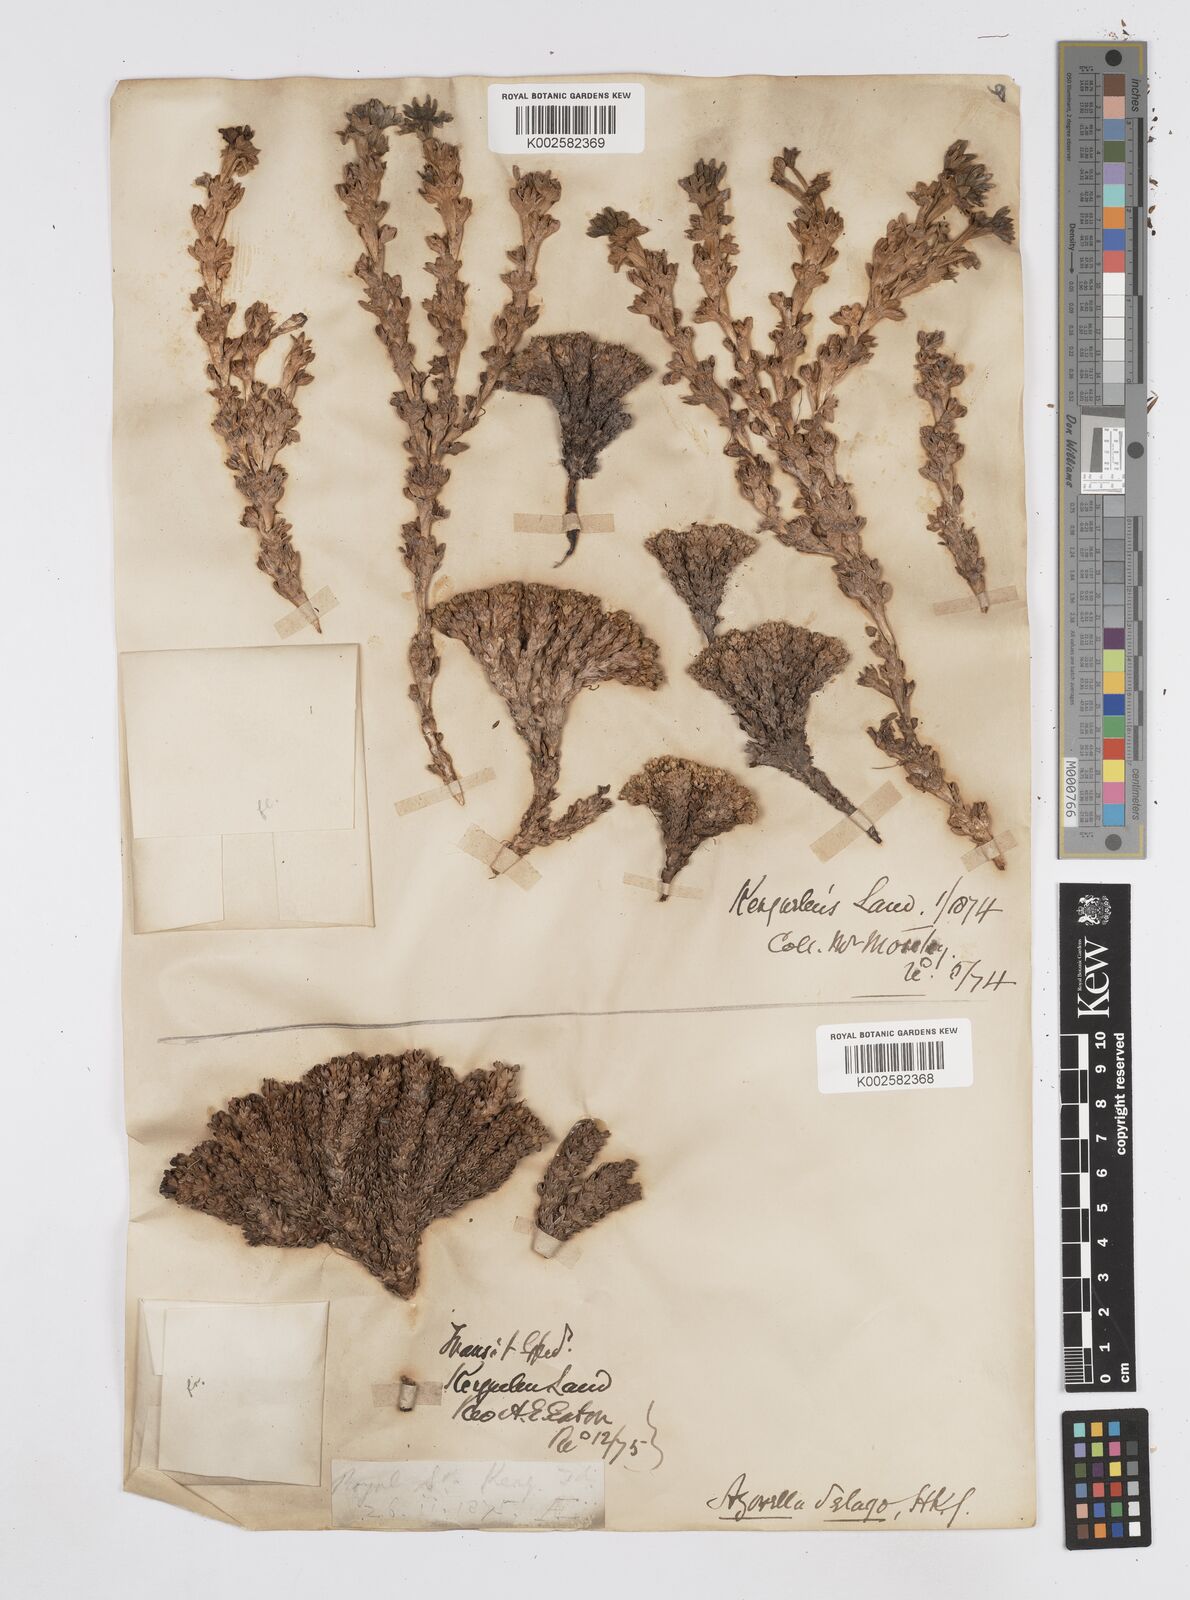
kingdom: Plantae
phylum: Tracheophyta
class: Magnoliopsida
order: Apiales
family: Apiaceae
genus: Azorella
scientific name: Azorella selago
